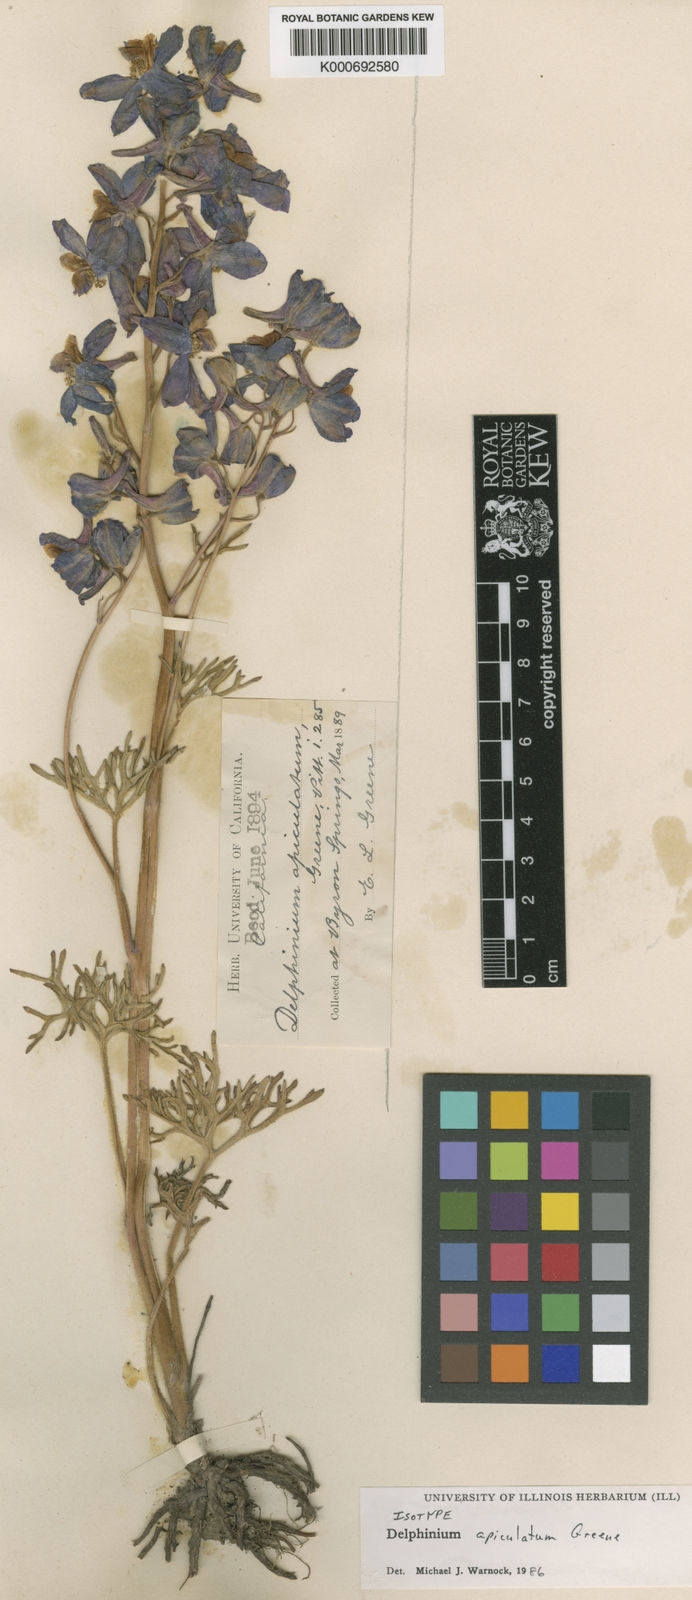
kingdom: Plantae
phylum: Tracheophyta
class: Magnoliopsida
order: Ranunculales
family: Ranunculaceae
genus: Delphinium
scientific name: Delphinium variegatum
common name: Royal larkspur
